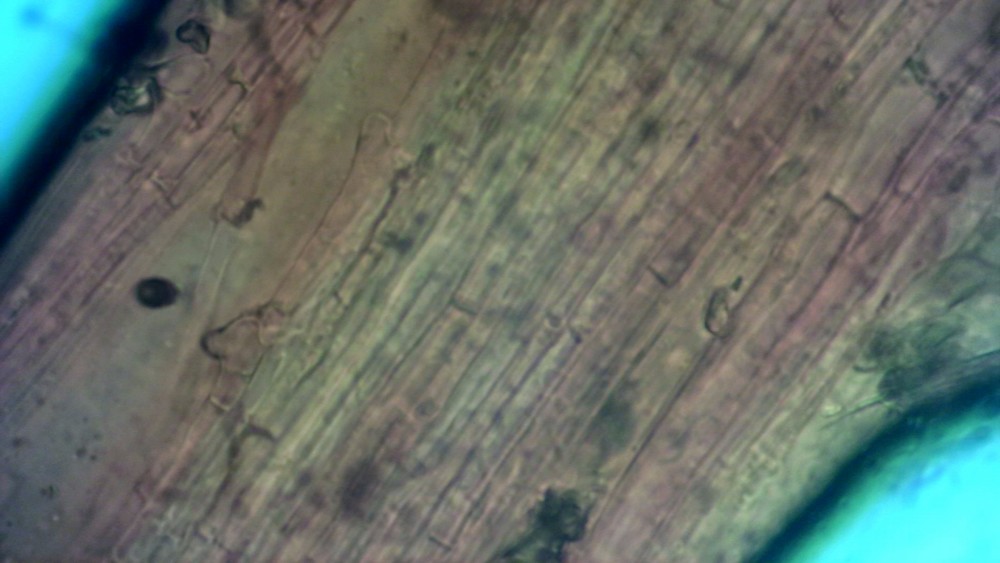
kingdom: Fungi
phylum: Basidiomycota
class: Agaricomycetes
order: Agaricales
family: Mycenaceae
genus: Hemimycena
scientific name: Hemimycena mauretanica
